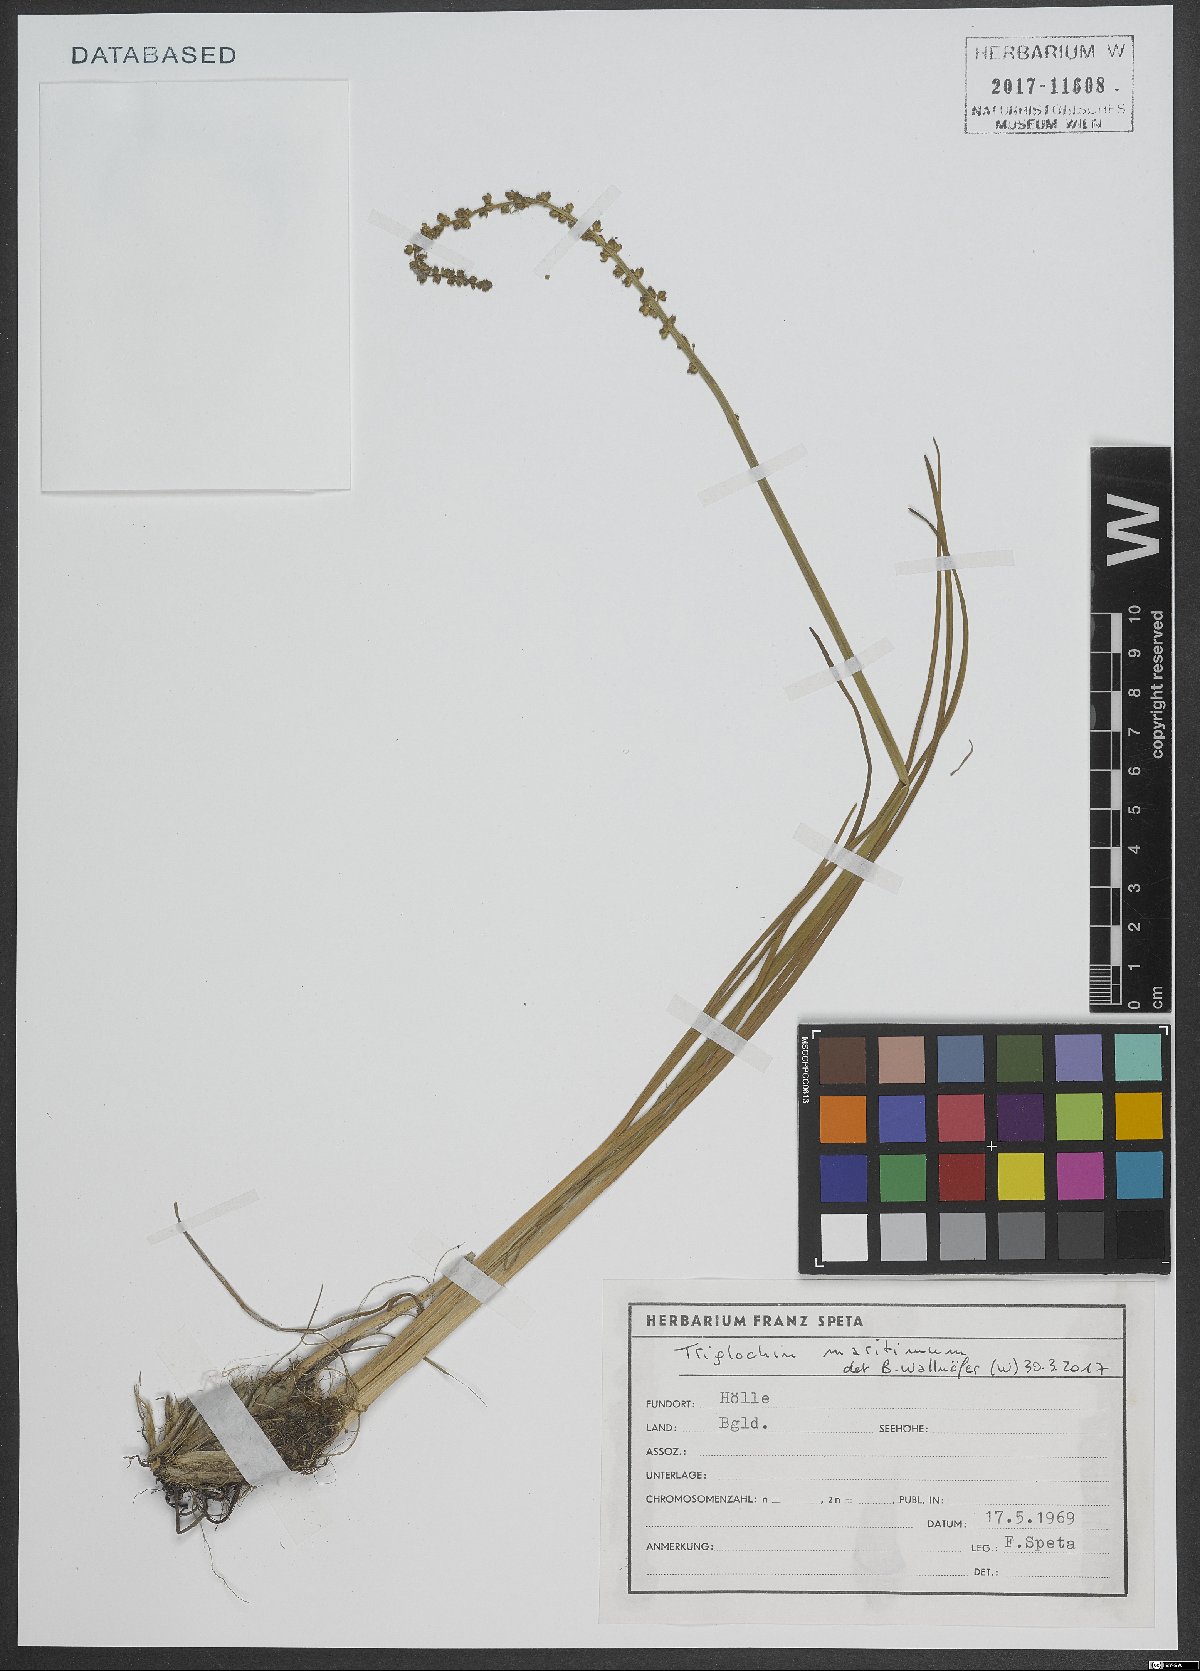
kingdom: Plantae
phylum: Tracheophyta
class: Liliopsida
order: Alismatales
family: Juncaginaceae
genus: Triglochin
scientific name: Triglochin maritima
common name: Sea arrowgrass
